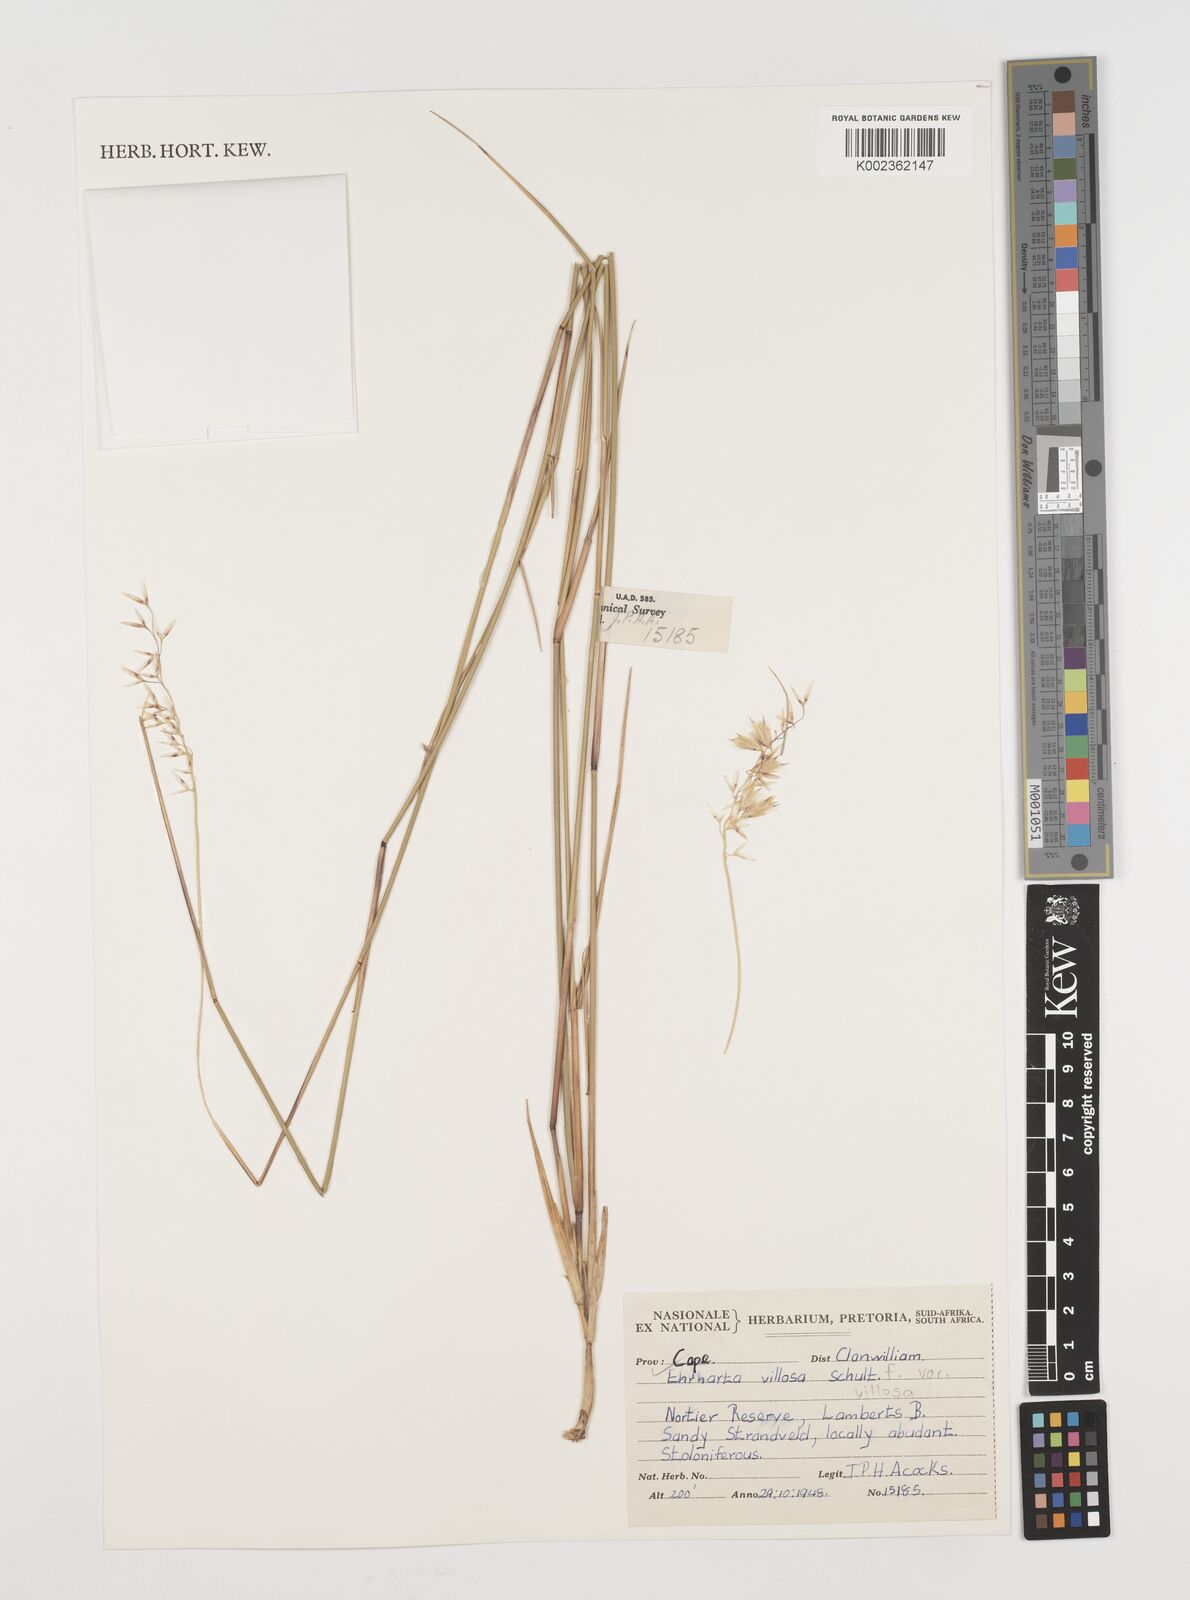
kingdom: Plantae
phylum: Tracheophyta
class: Liliopsida
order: Poales
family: Poaceae
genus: Ehrharta
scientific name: Ehrharta villosa
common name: Pyp grass
